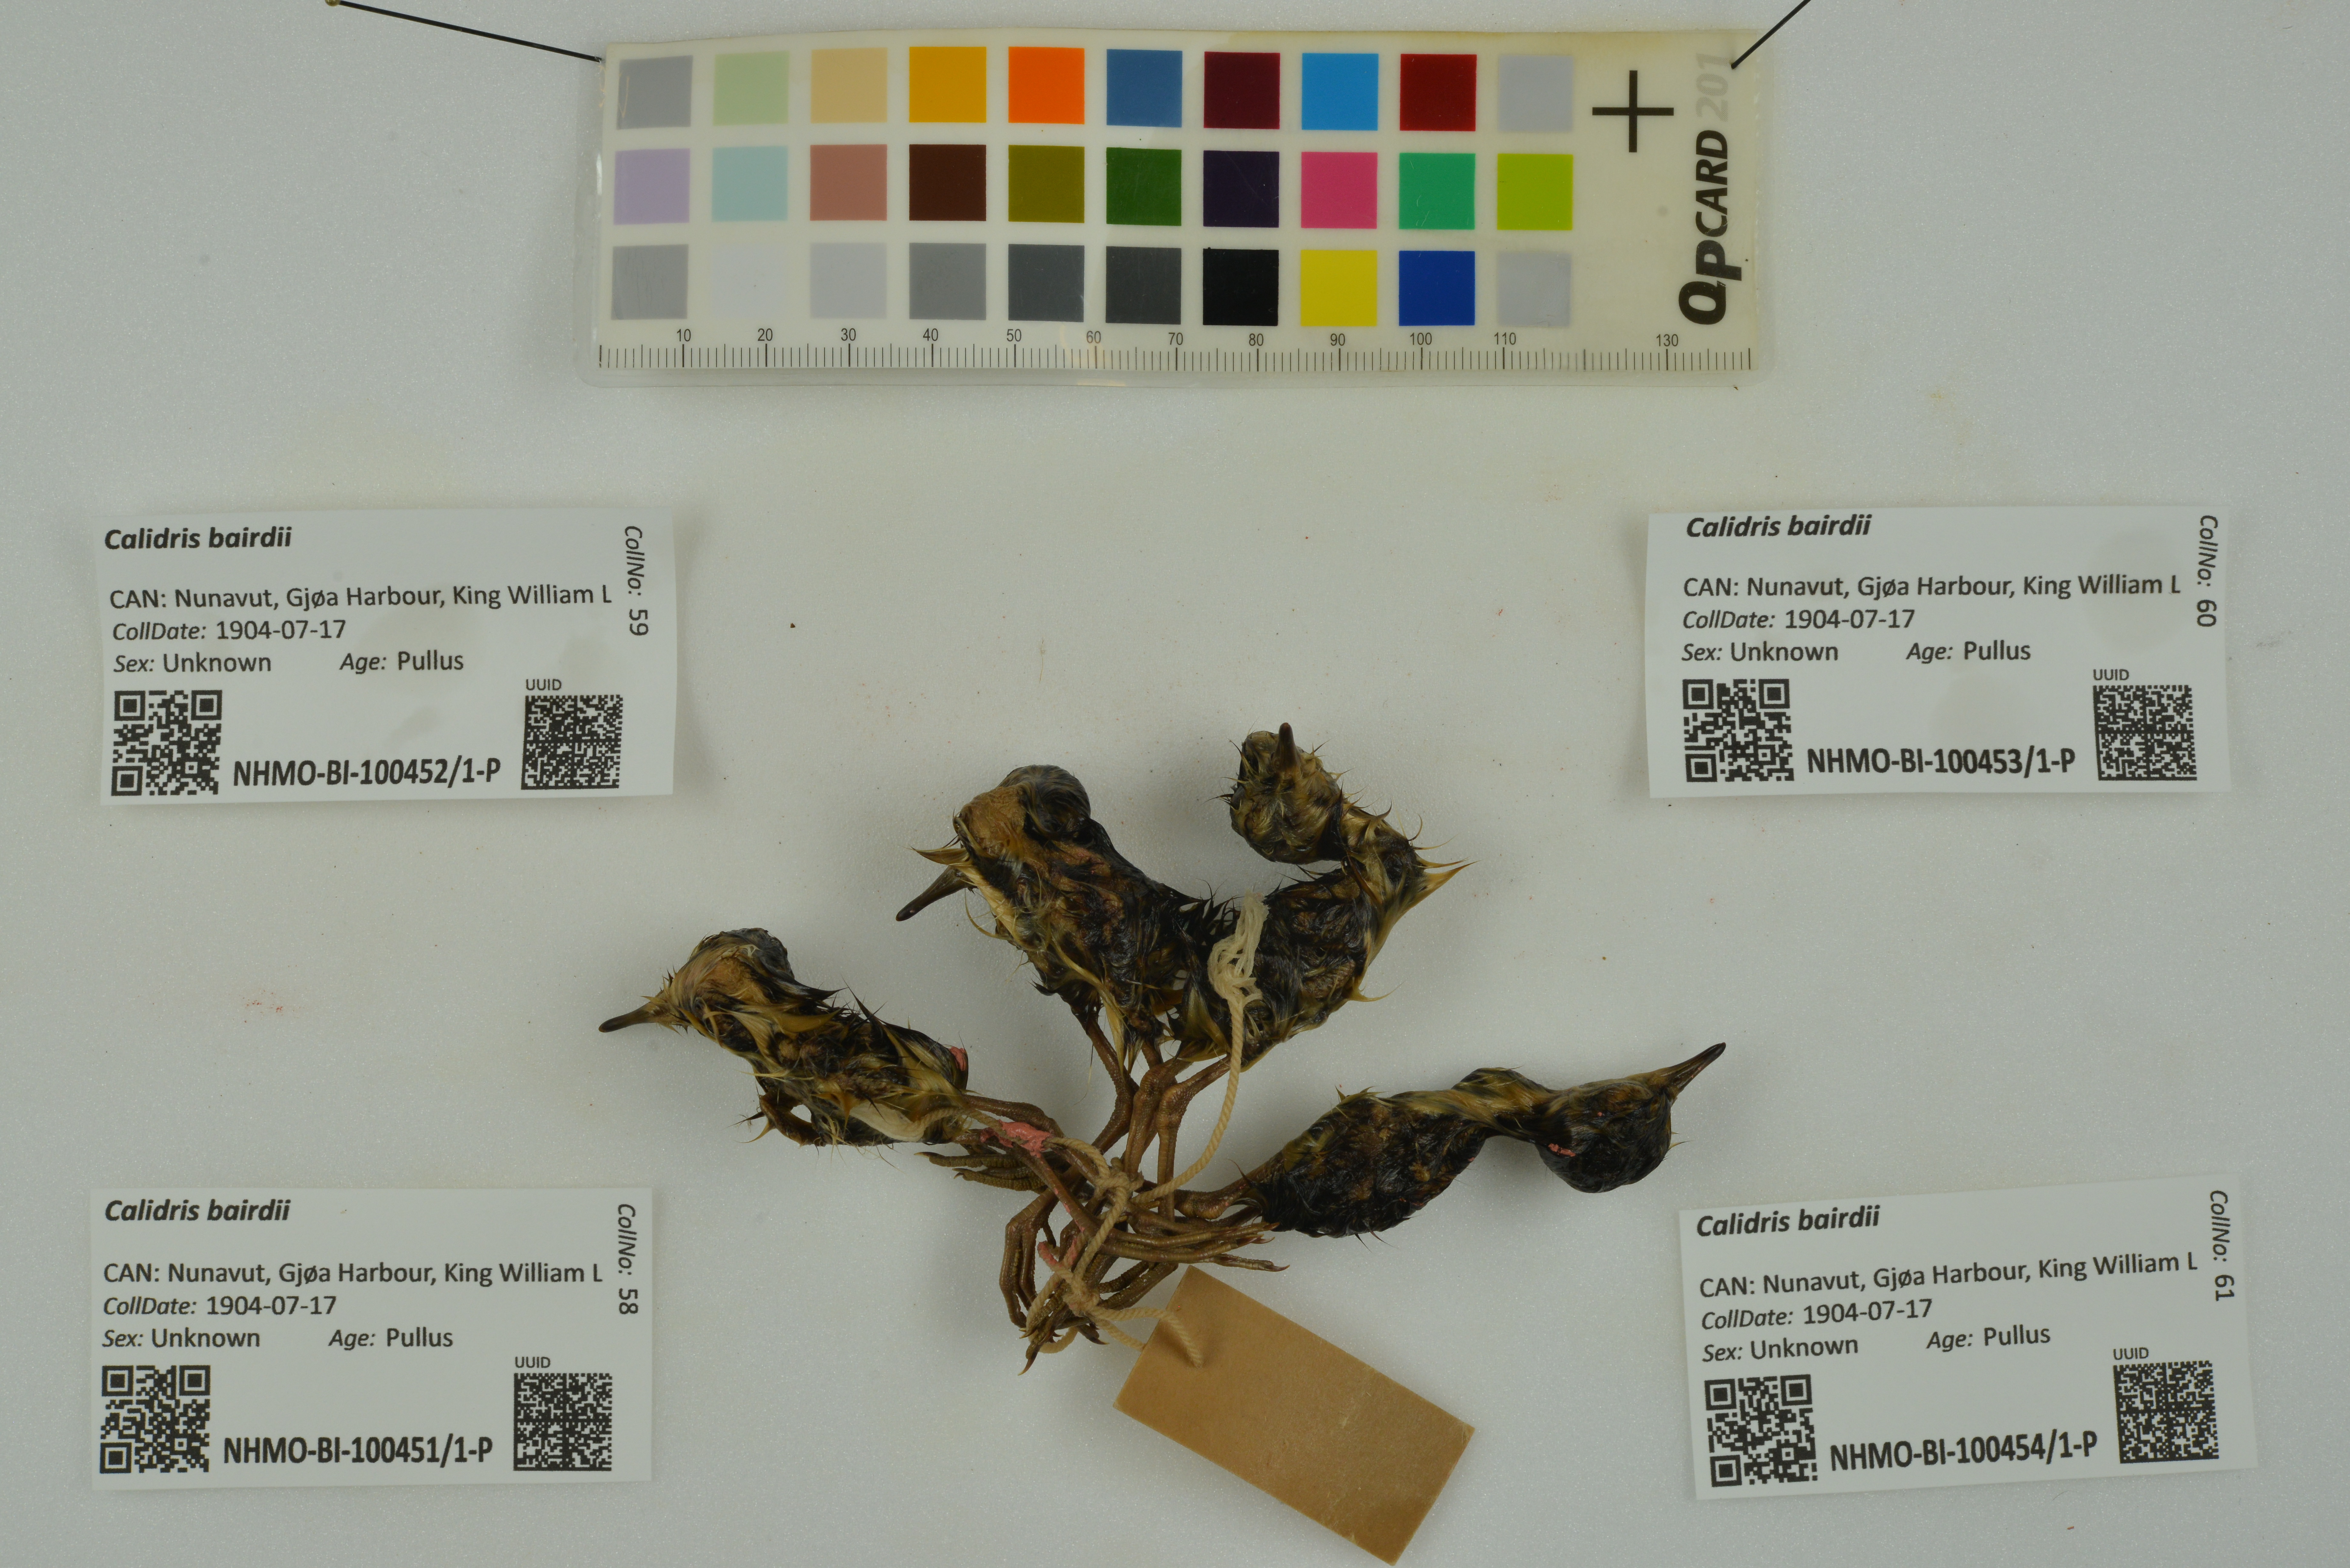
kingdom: Animalia
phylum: Chordata
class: Aves
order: Charadriiformes
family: Scolopacidae
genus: Calidris
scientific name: Calidris bairdii
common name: Baird's sandpiper
